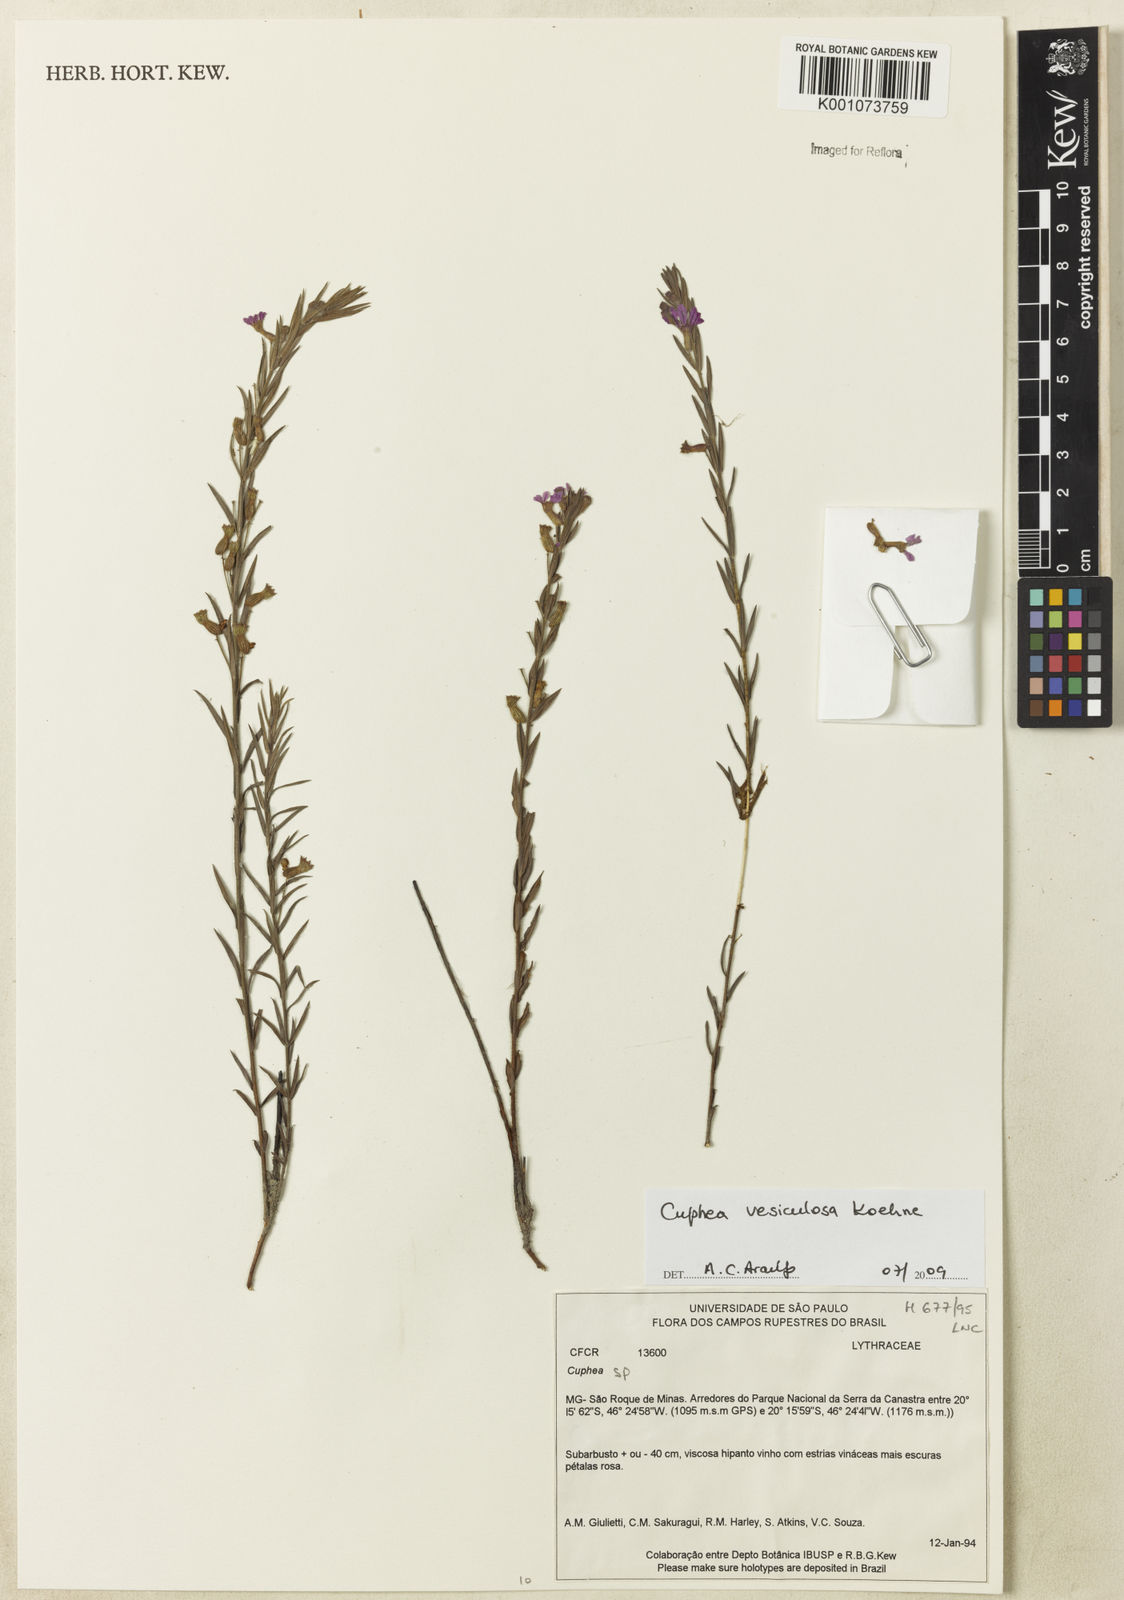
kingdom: Plantae
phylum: Tracheophyta
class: Magnoliopsida
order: Myrtales
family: Lythraceae
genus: Cuphea
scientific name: Cuphea vesiculosa
